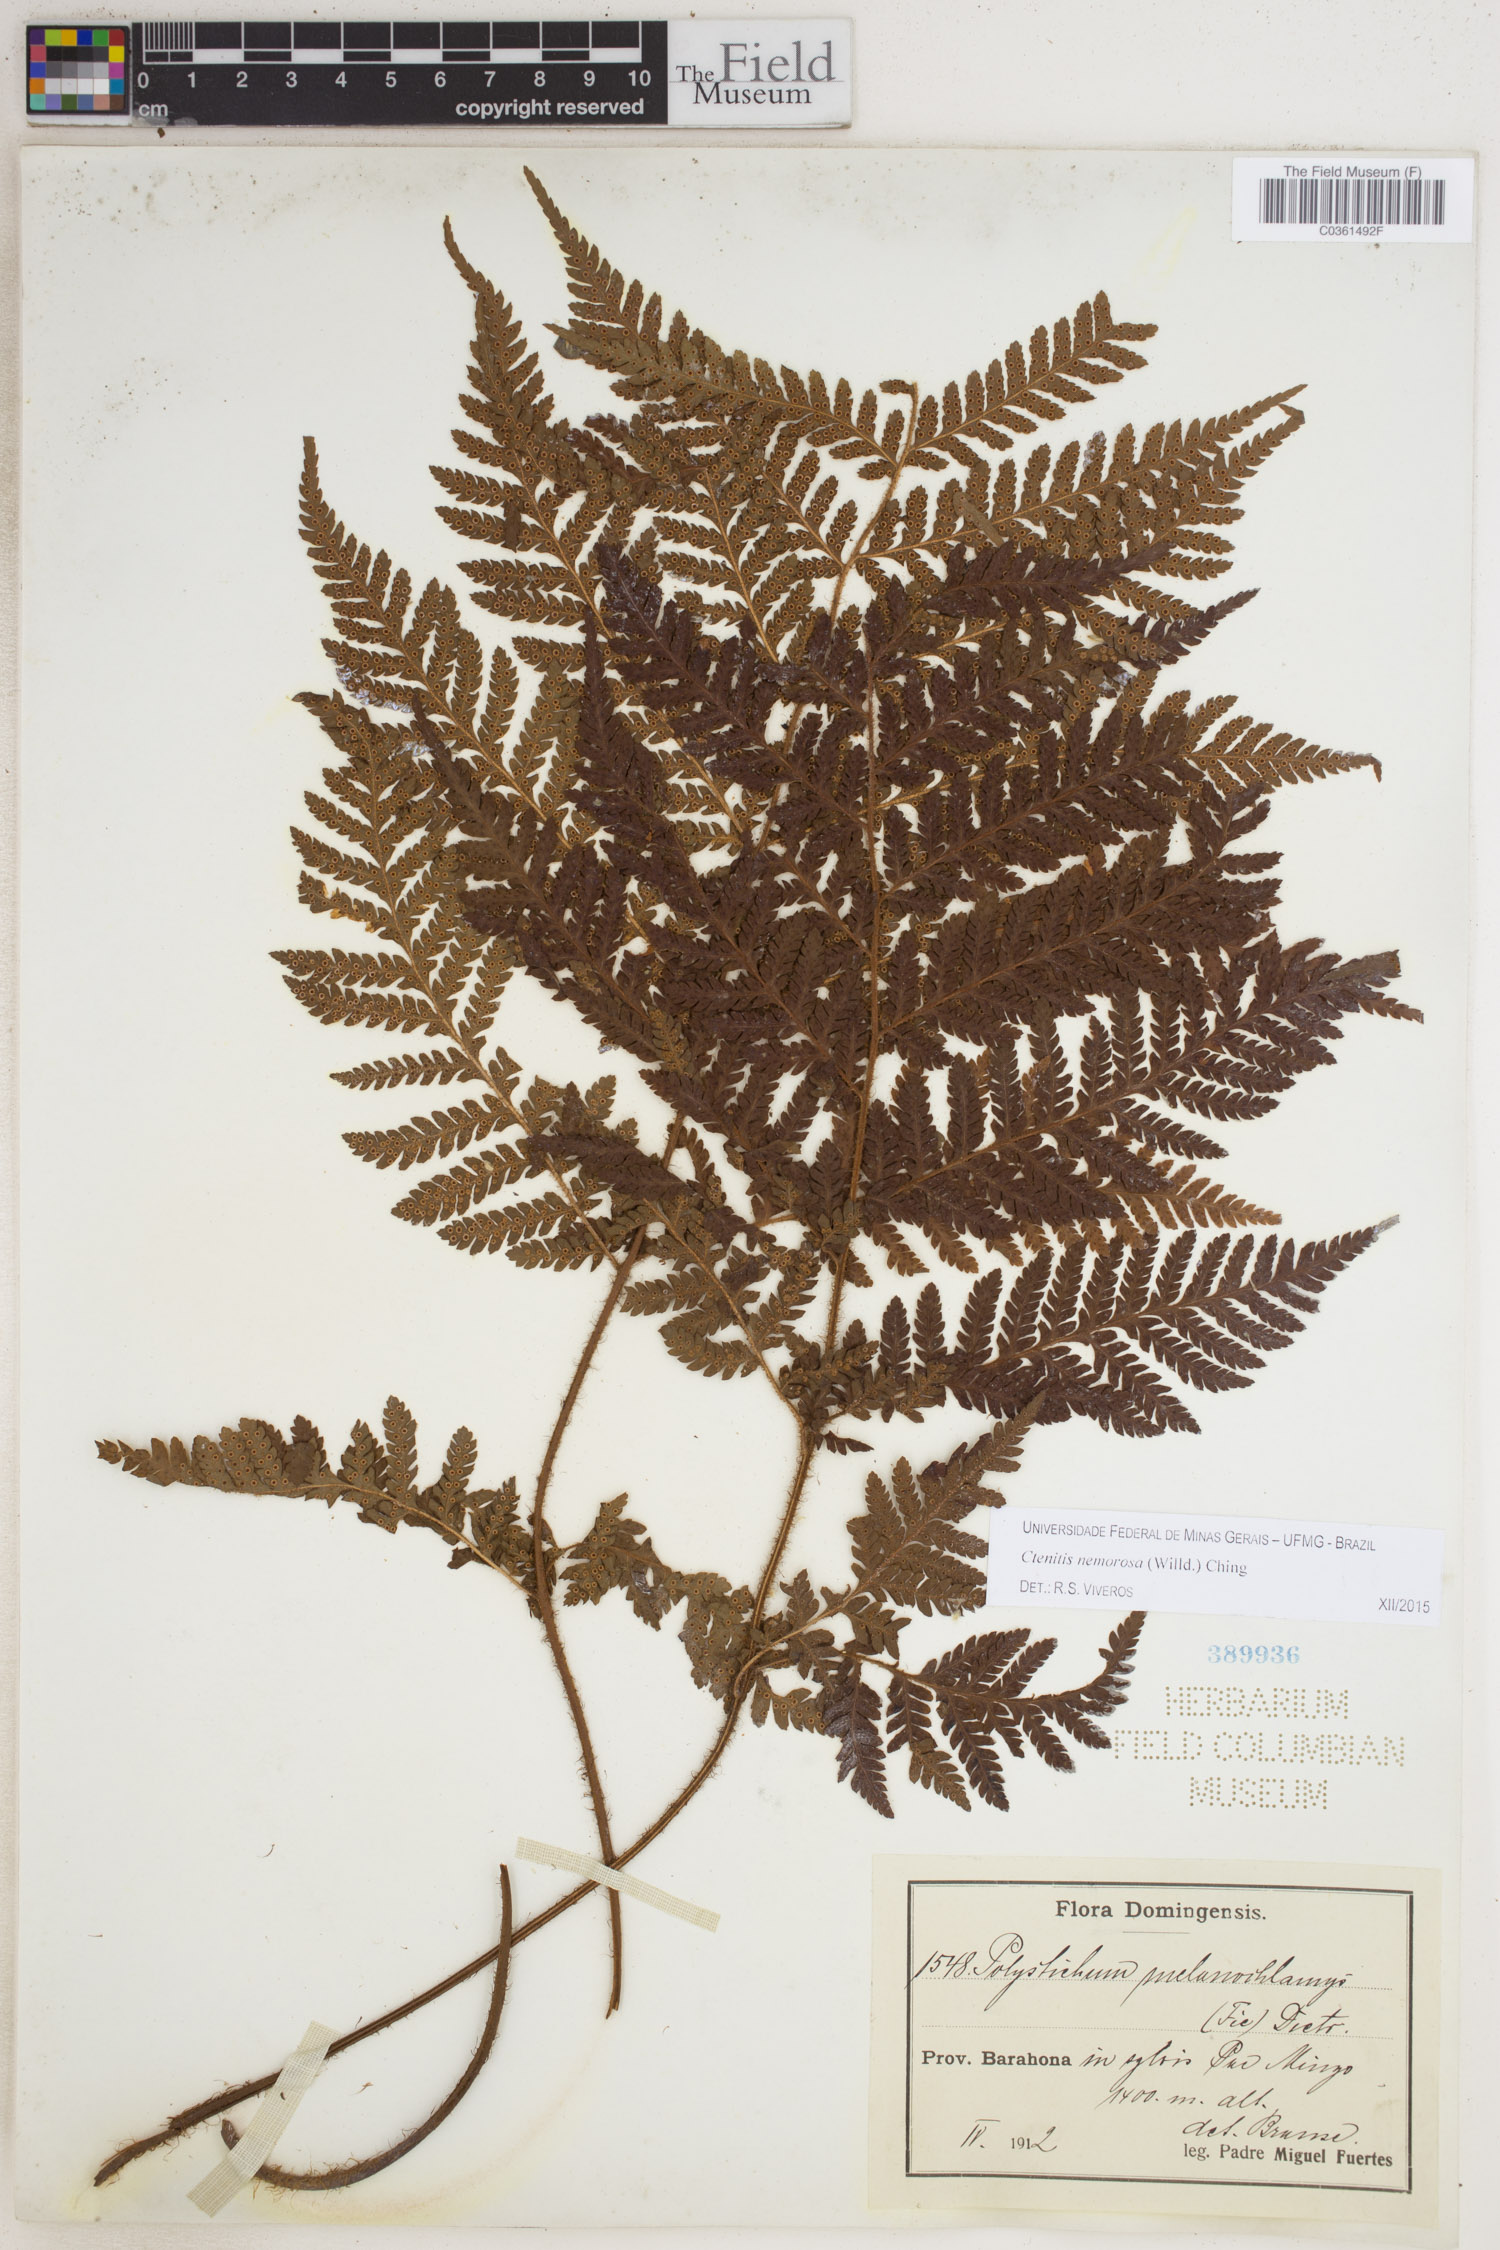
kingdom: Plantae
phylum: Tracheophyta
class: Polypodiopsida
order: Polypodiales
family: Dryopteridaceae
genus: Ctenitis
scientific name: Ctenitis nemorosa
